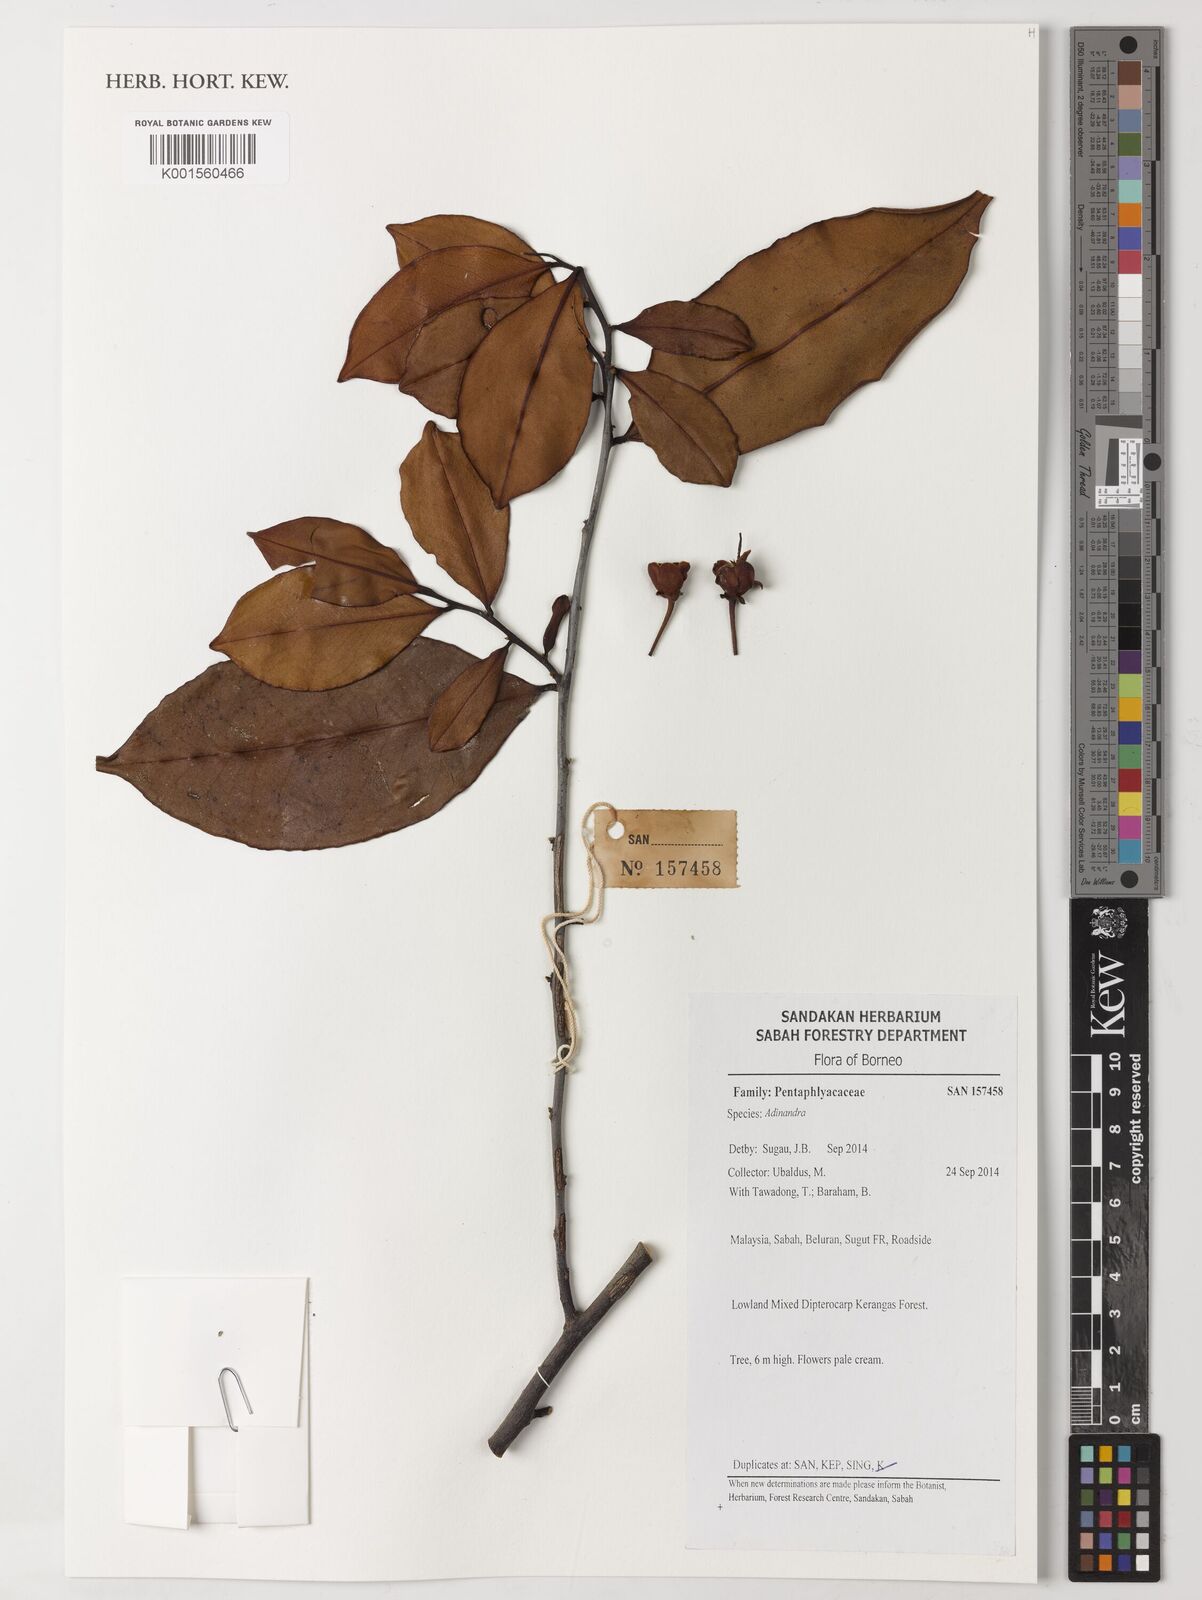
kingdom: Plantae
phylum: Tracheophyta
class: Magnoliopsida
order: Ericales
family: Pentaphylacaceae
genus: Adinandra
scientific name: Adinandra
